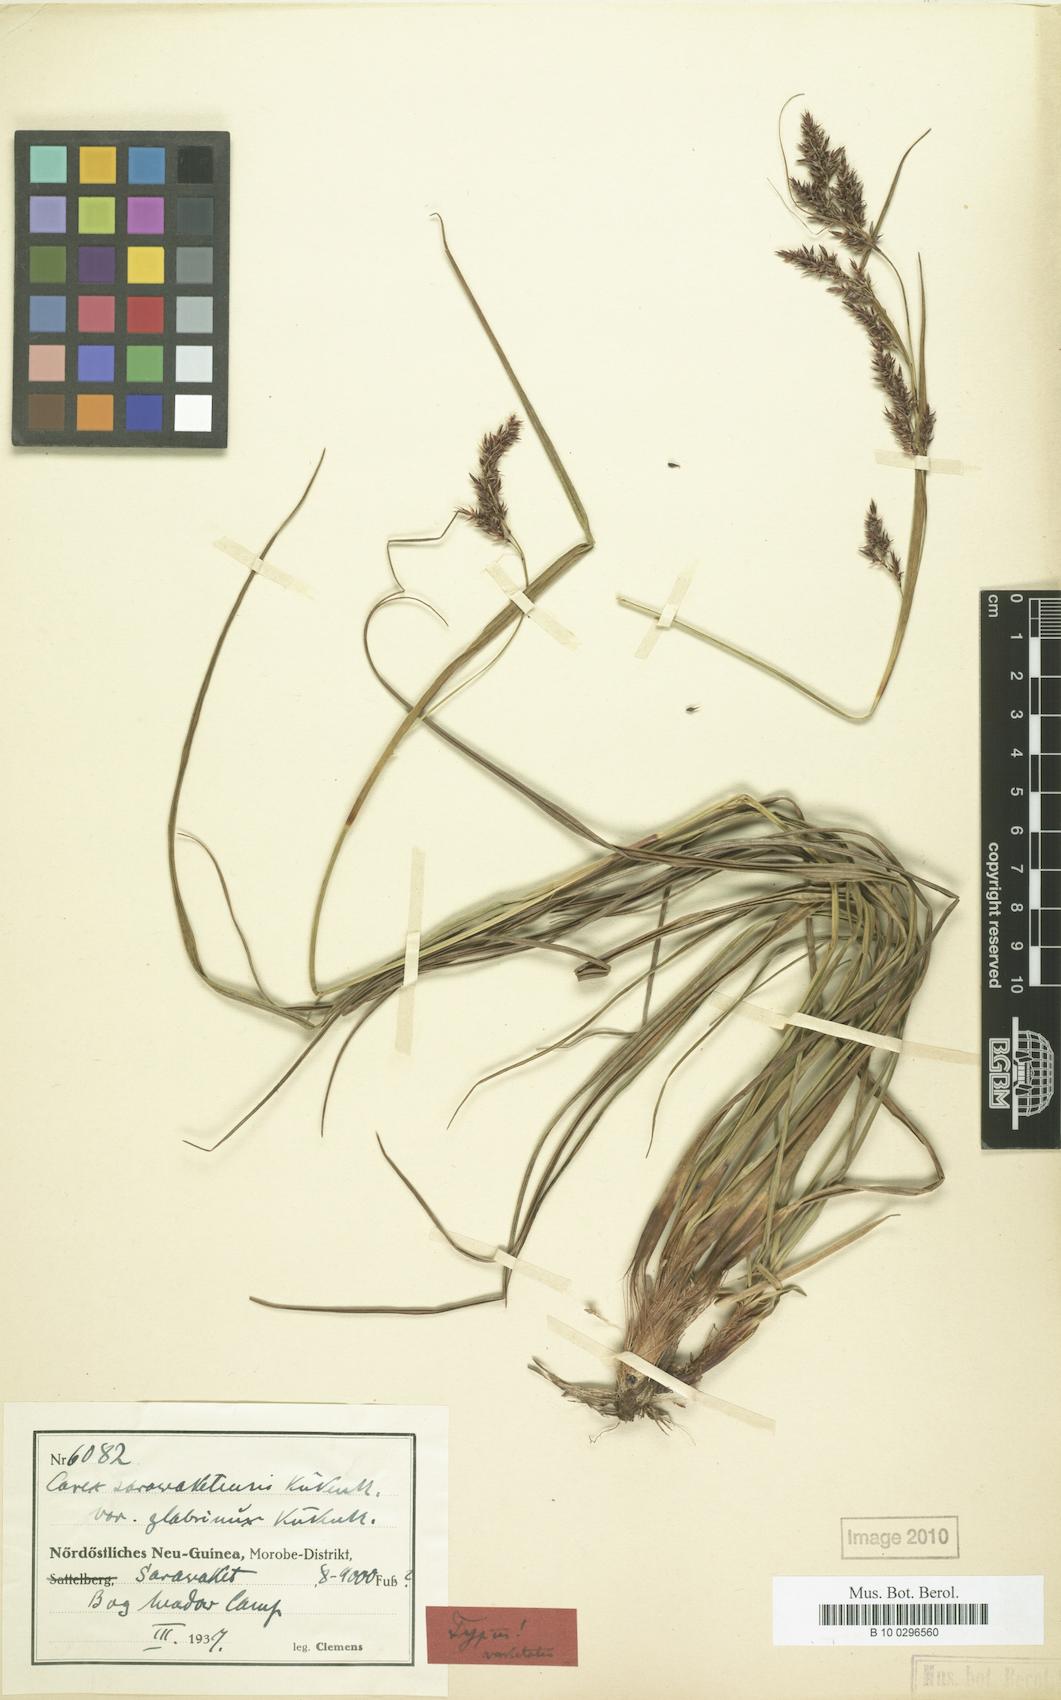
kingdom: Plantae
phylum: Tracheophyta
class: Liliopsida
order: Poales
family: Cyperaceae
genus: Carex
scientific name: Carex sarawaketensis
